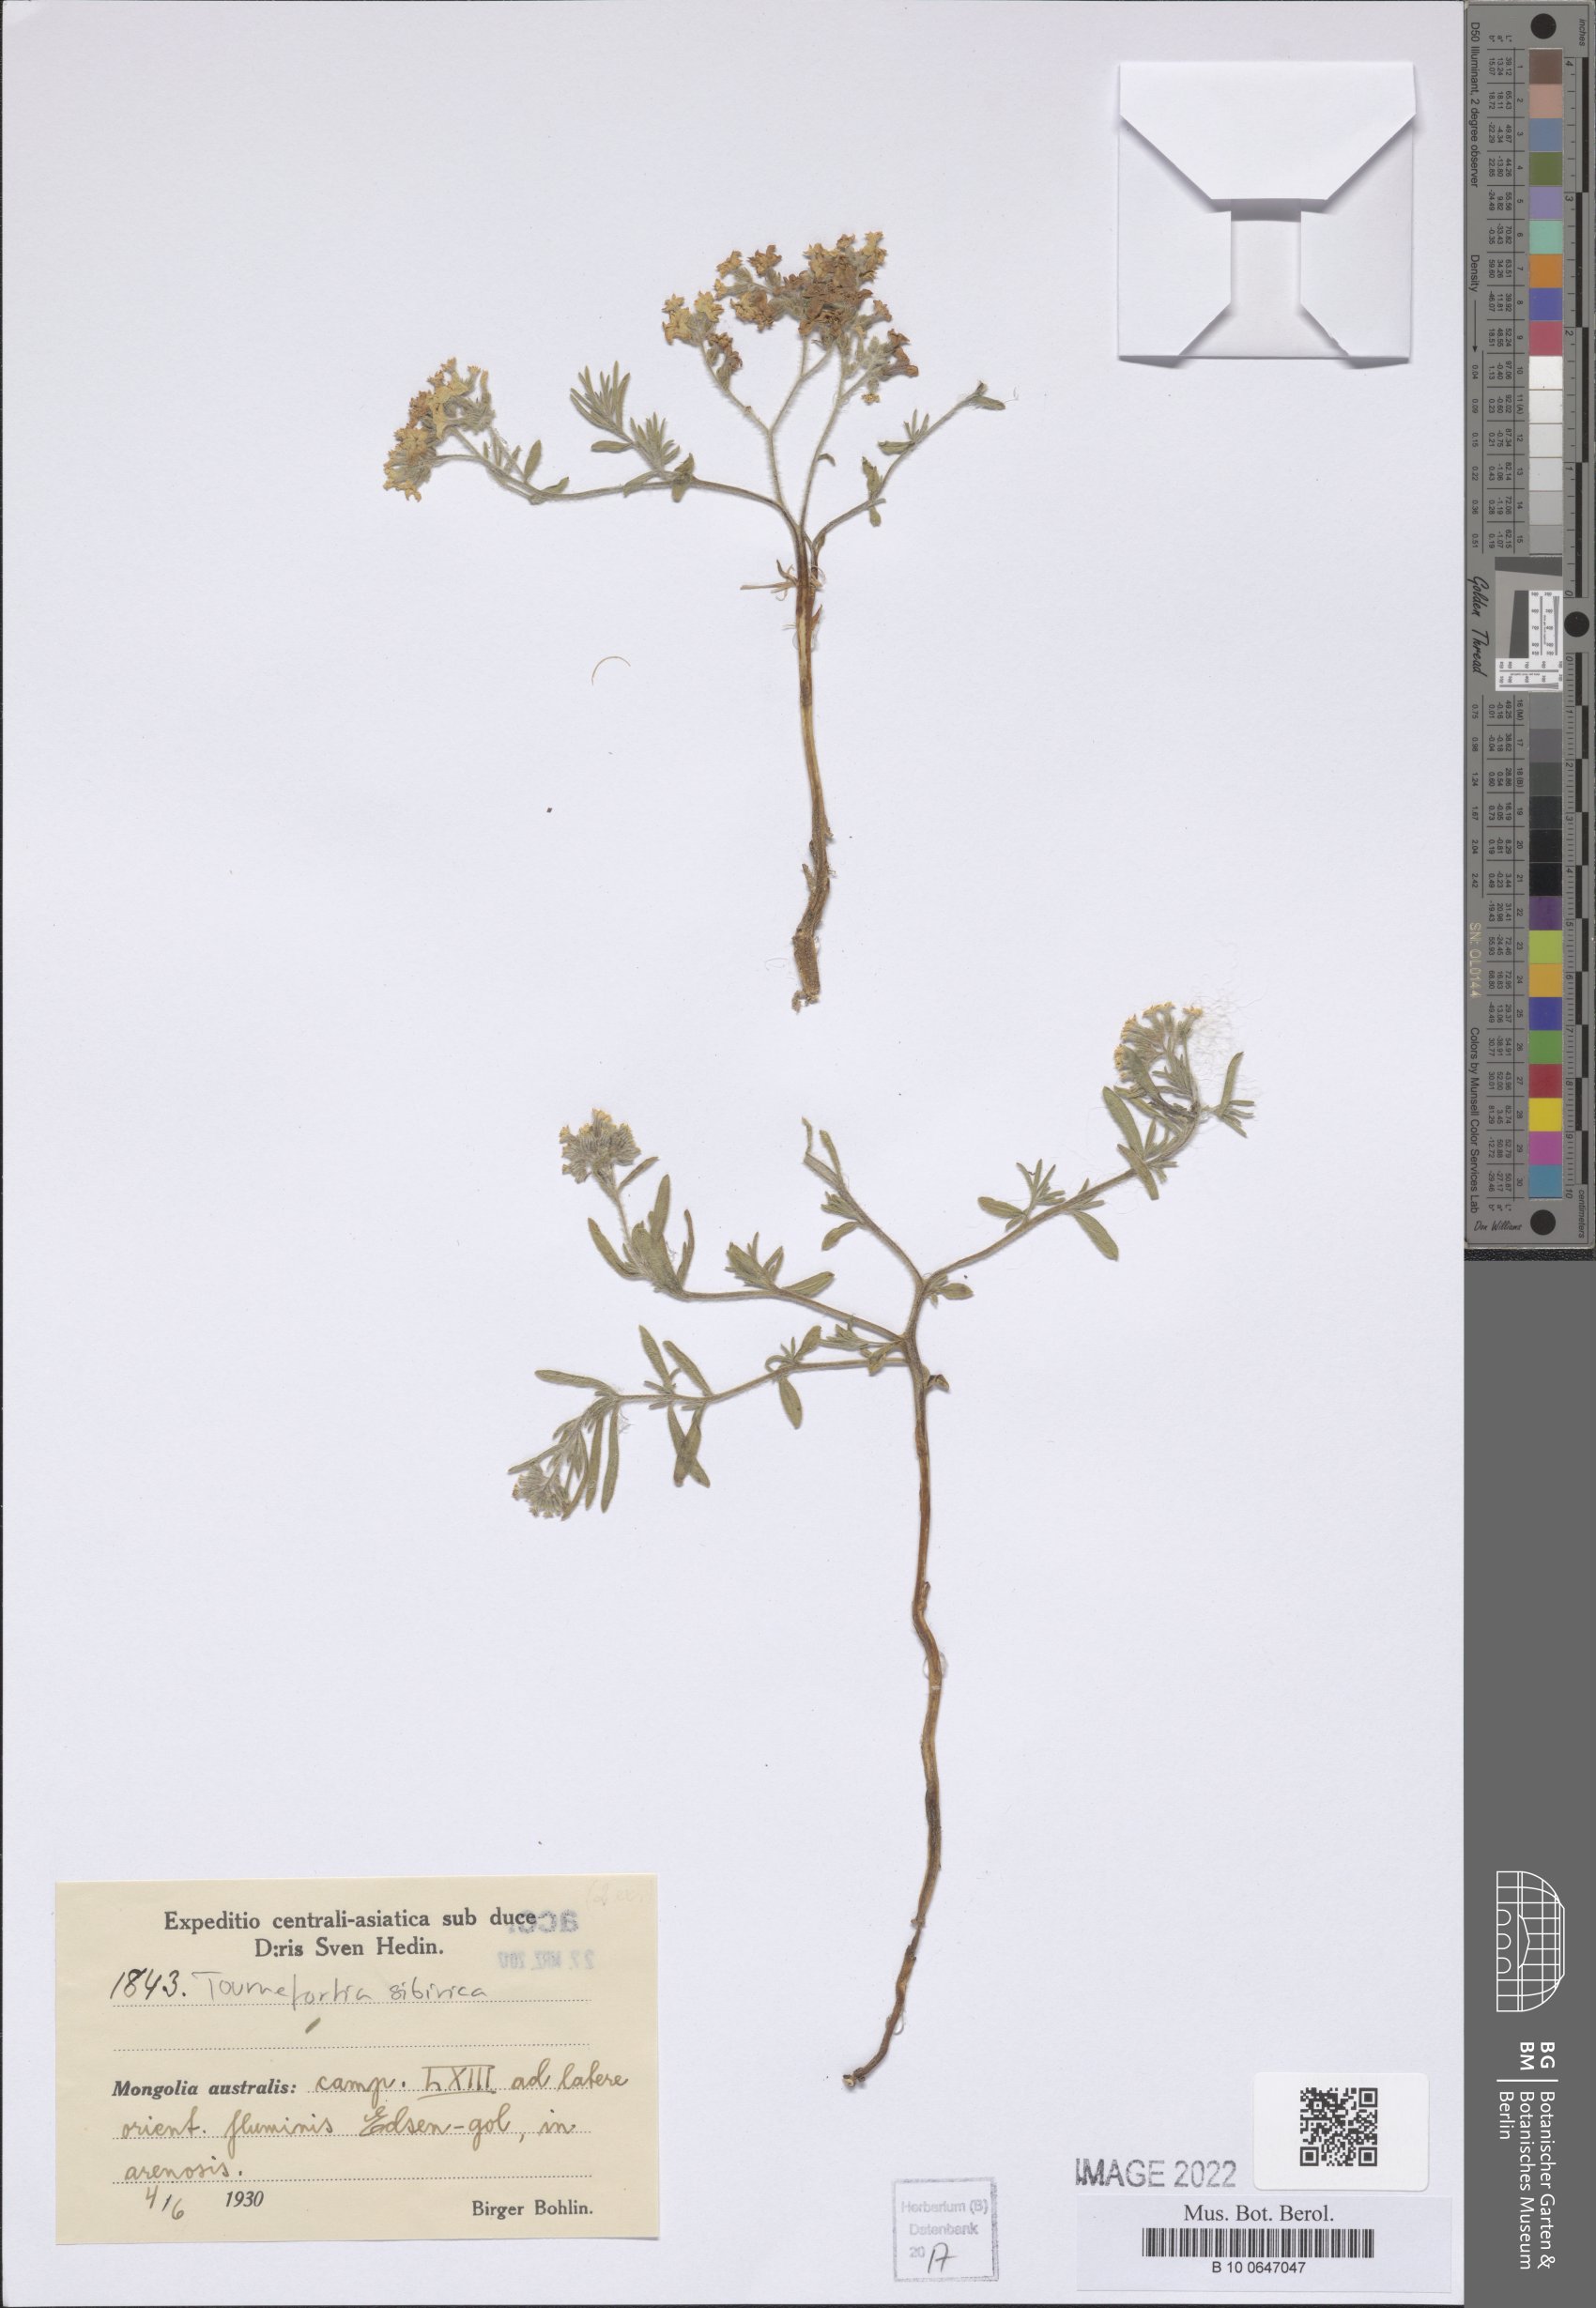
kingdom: Plantae
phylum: Tracheophyta
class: Magnoliopsida
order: Boraginales
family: Heliotropiaceae
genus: Tournefortia
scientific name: Tournefortia sibirica
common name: Siberian sea rosemary
